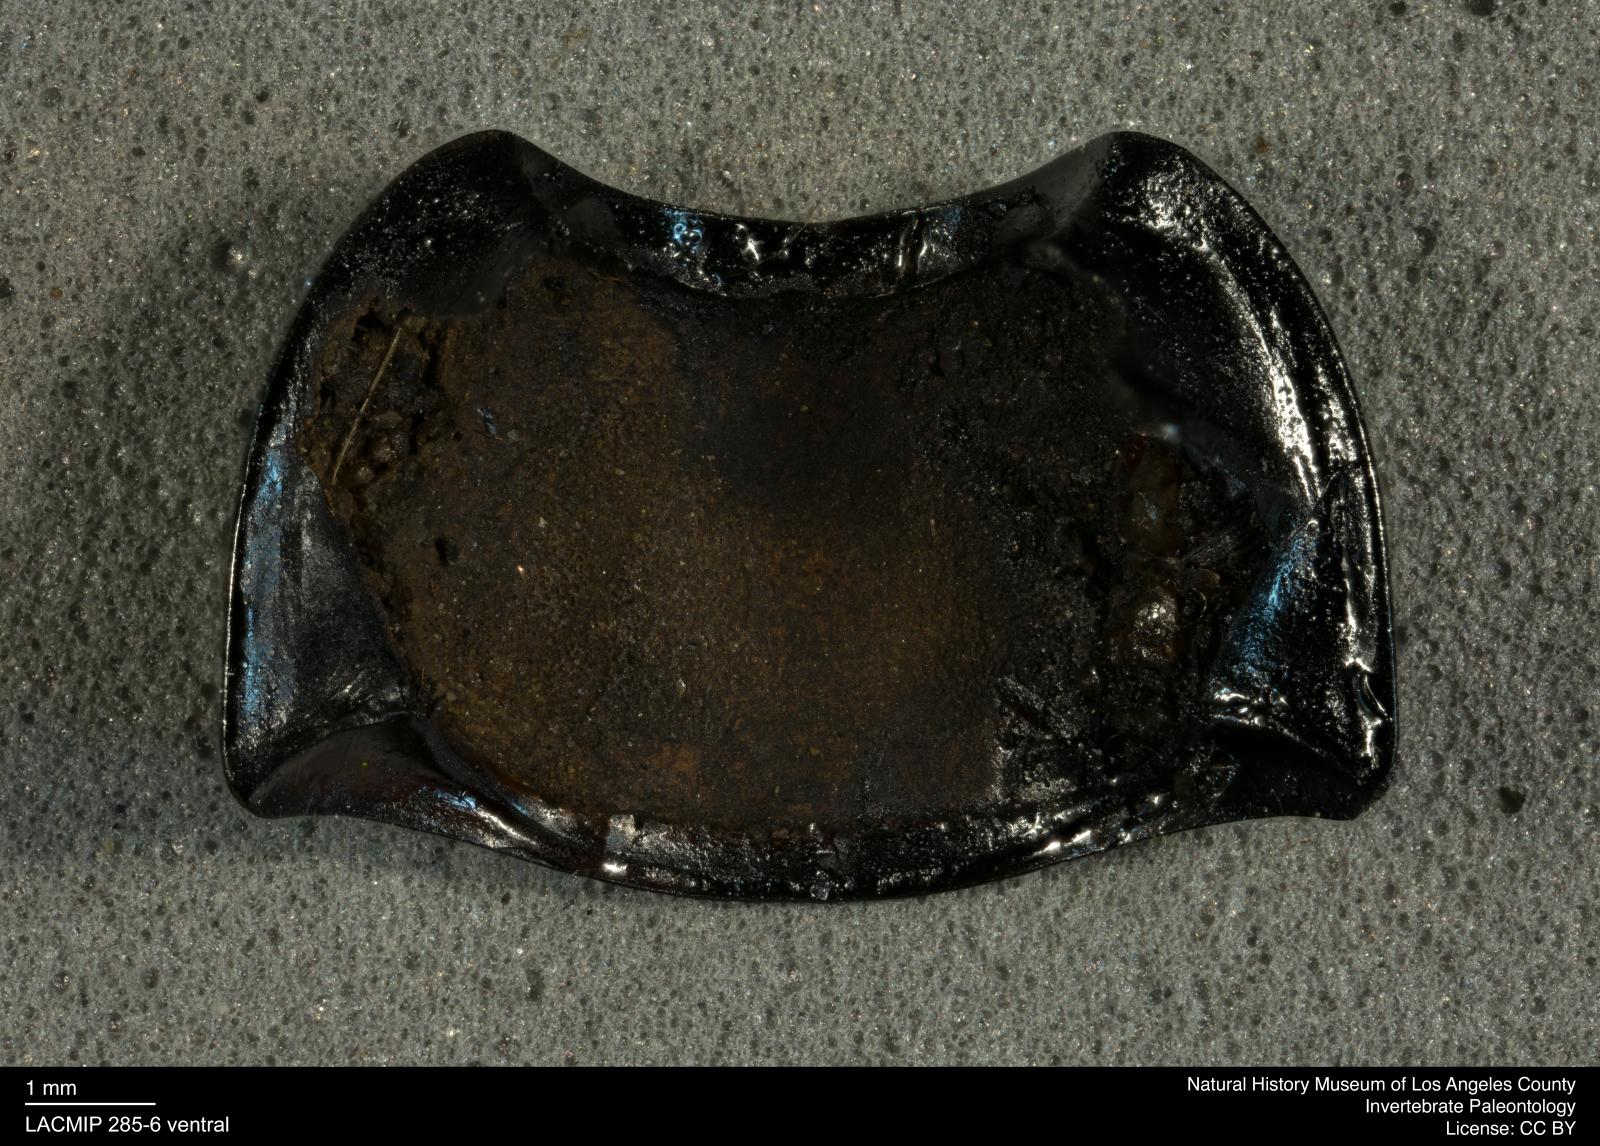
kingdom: Animalia
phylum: Arthropoda
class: Insecta
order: Coleoptera
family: Tenebrionidae
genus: Coniontis
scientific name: Coniontis abdominalis
